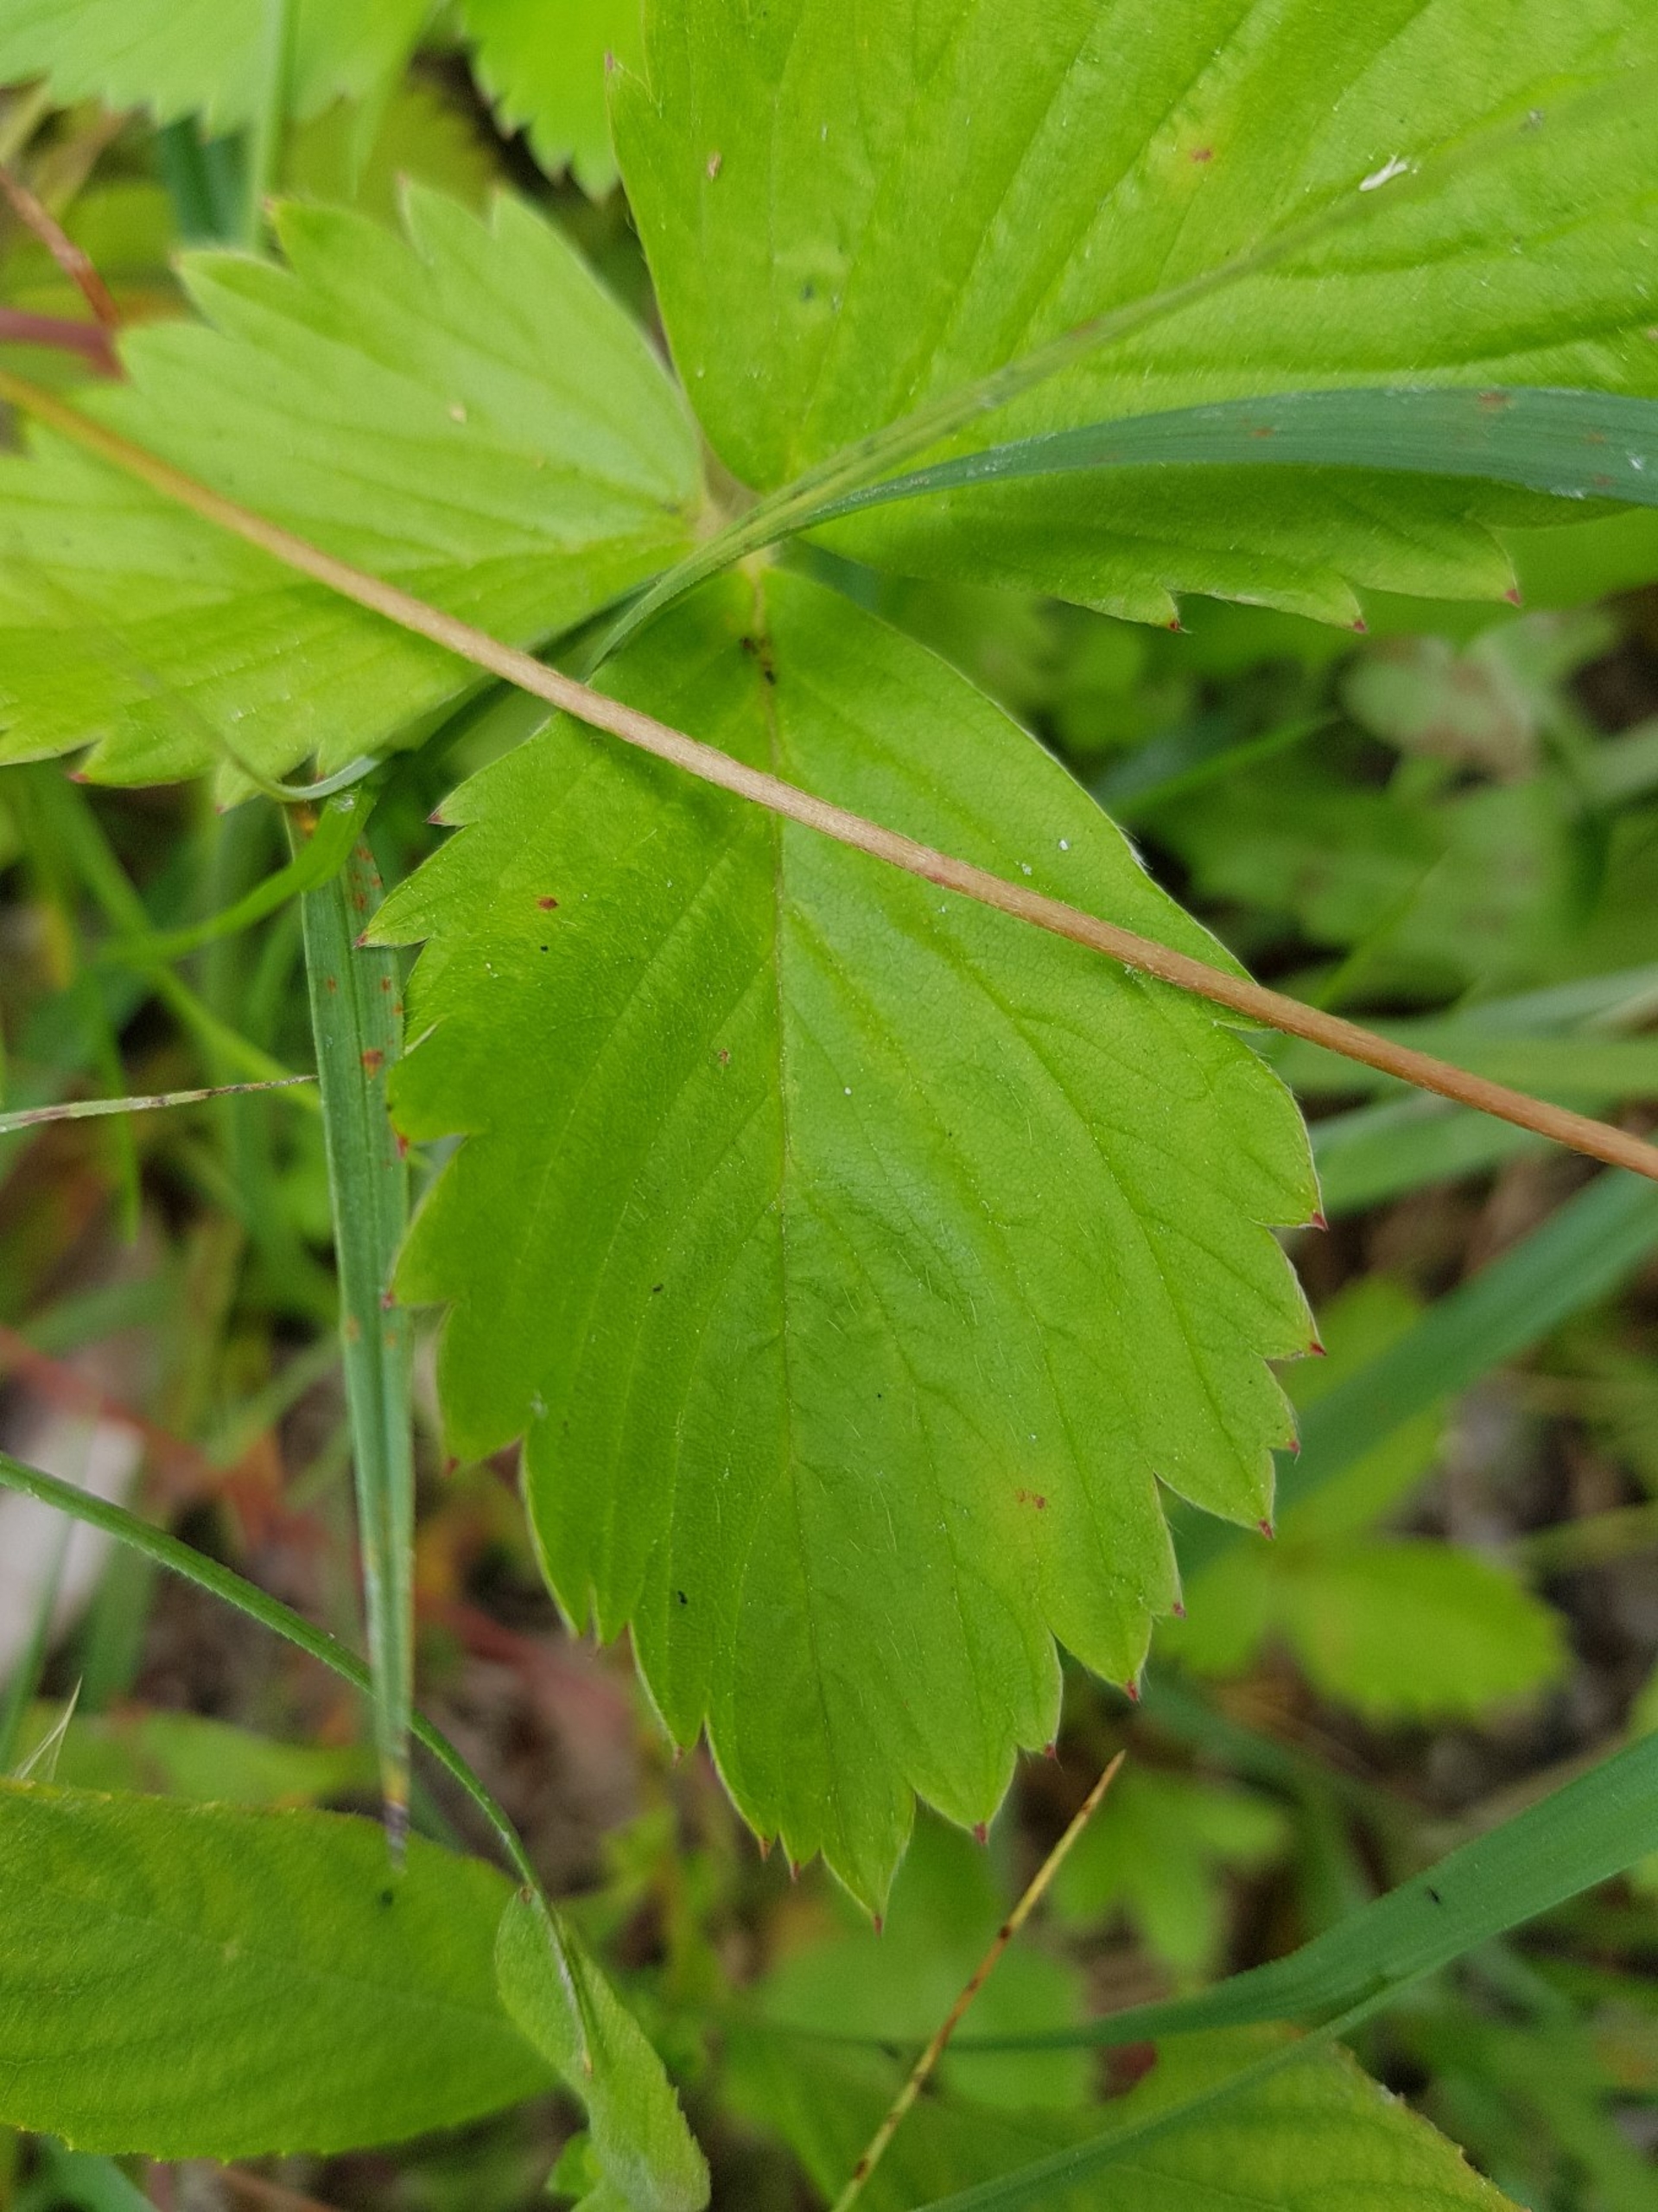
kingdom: Plantae
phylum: Tracheophyta
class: Magnoliopsida
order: Rosales
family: Rosaceae
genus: Fragaria
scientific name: Fragaria vesca
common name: Skov-jordbær
